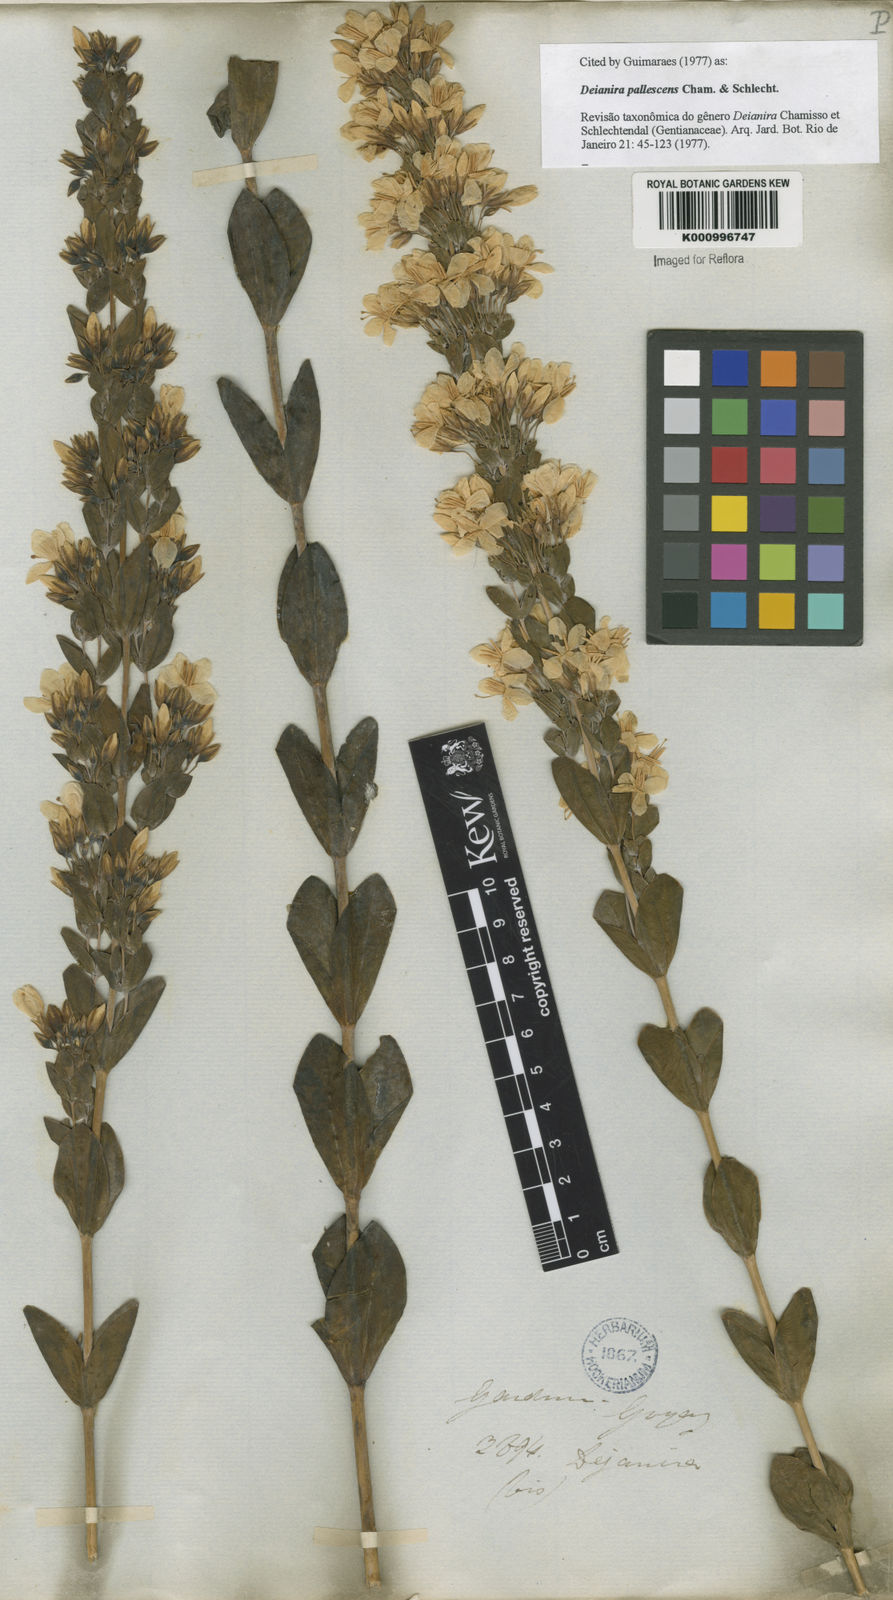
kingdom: Plantae
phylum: Tracheophyta
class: Magnoliopsida
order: Gentianales
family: Gentianaceae
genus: Deianira
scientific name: Deianira pallescens
